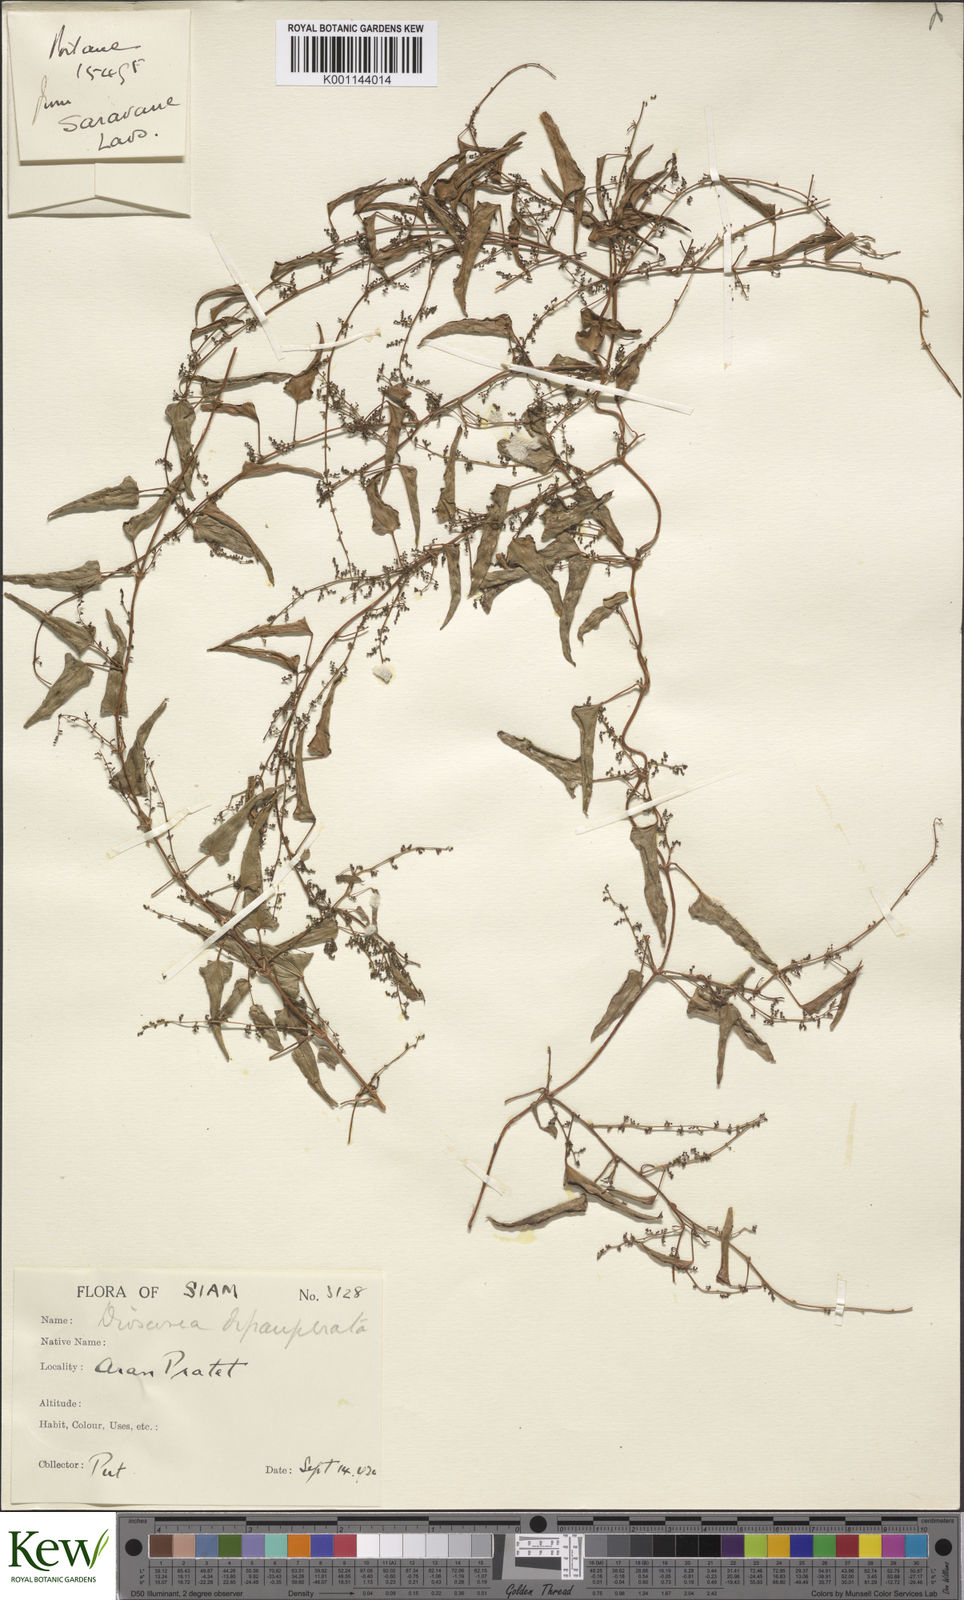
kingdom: Plantae
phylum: Tracheophyta
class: Liliopsida
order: Dioscoreales
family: Dioscoreaceae
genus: Dioscorea
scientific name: Dioscorea depauperata
